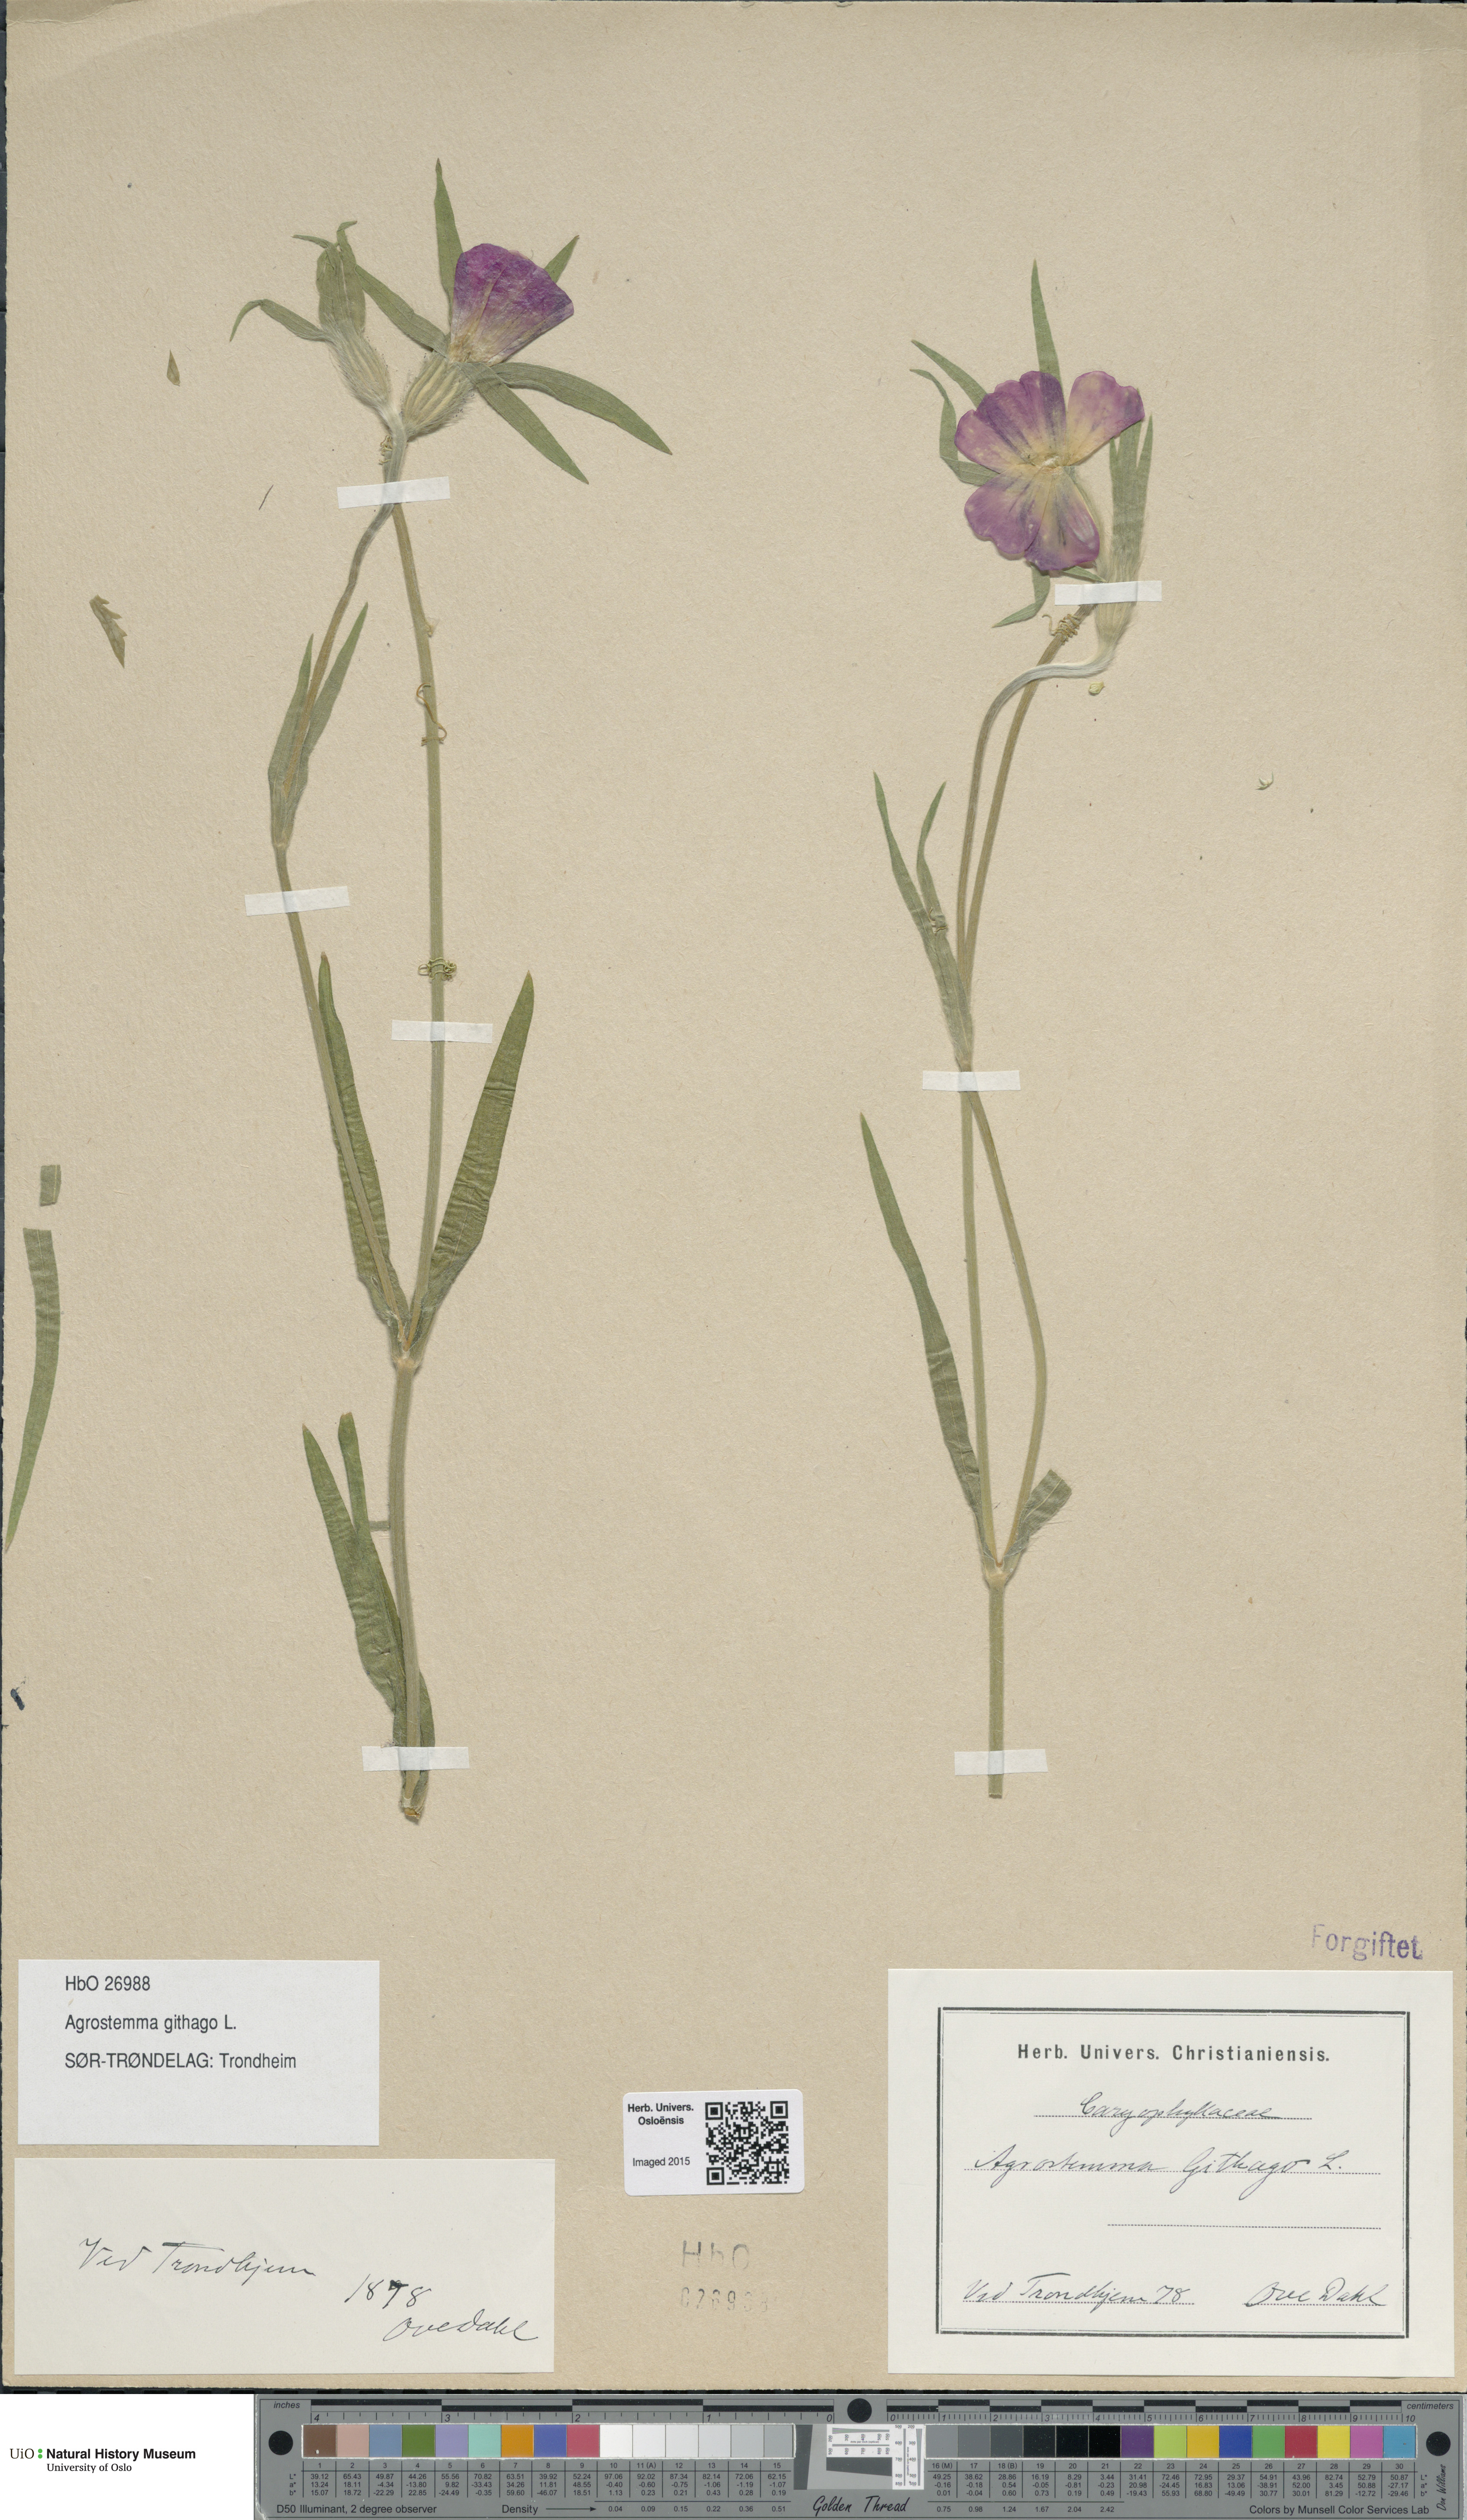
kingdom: Plantae
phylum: Tracheophyta
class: Magnoliopsida
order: Caryophyllales
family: Caryophyllaceae
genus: Agrostemma
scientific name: Agrostemma githago
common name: Common corncockle
